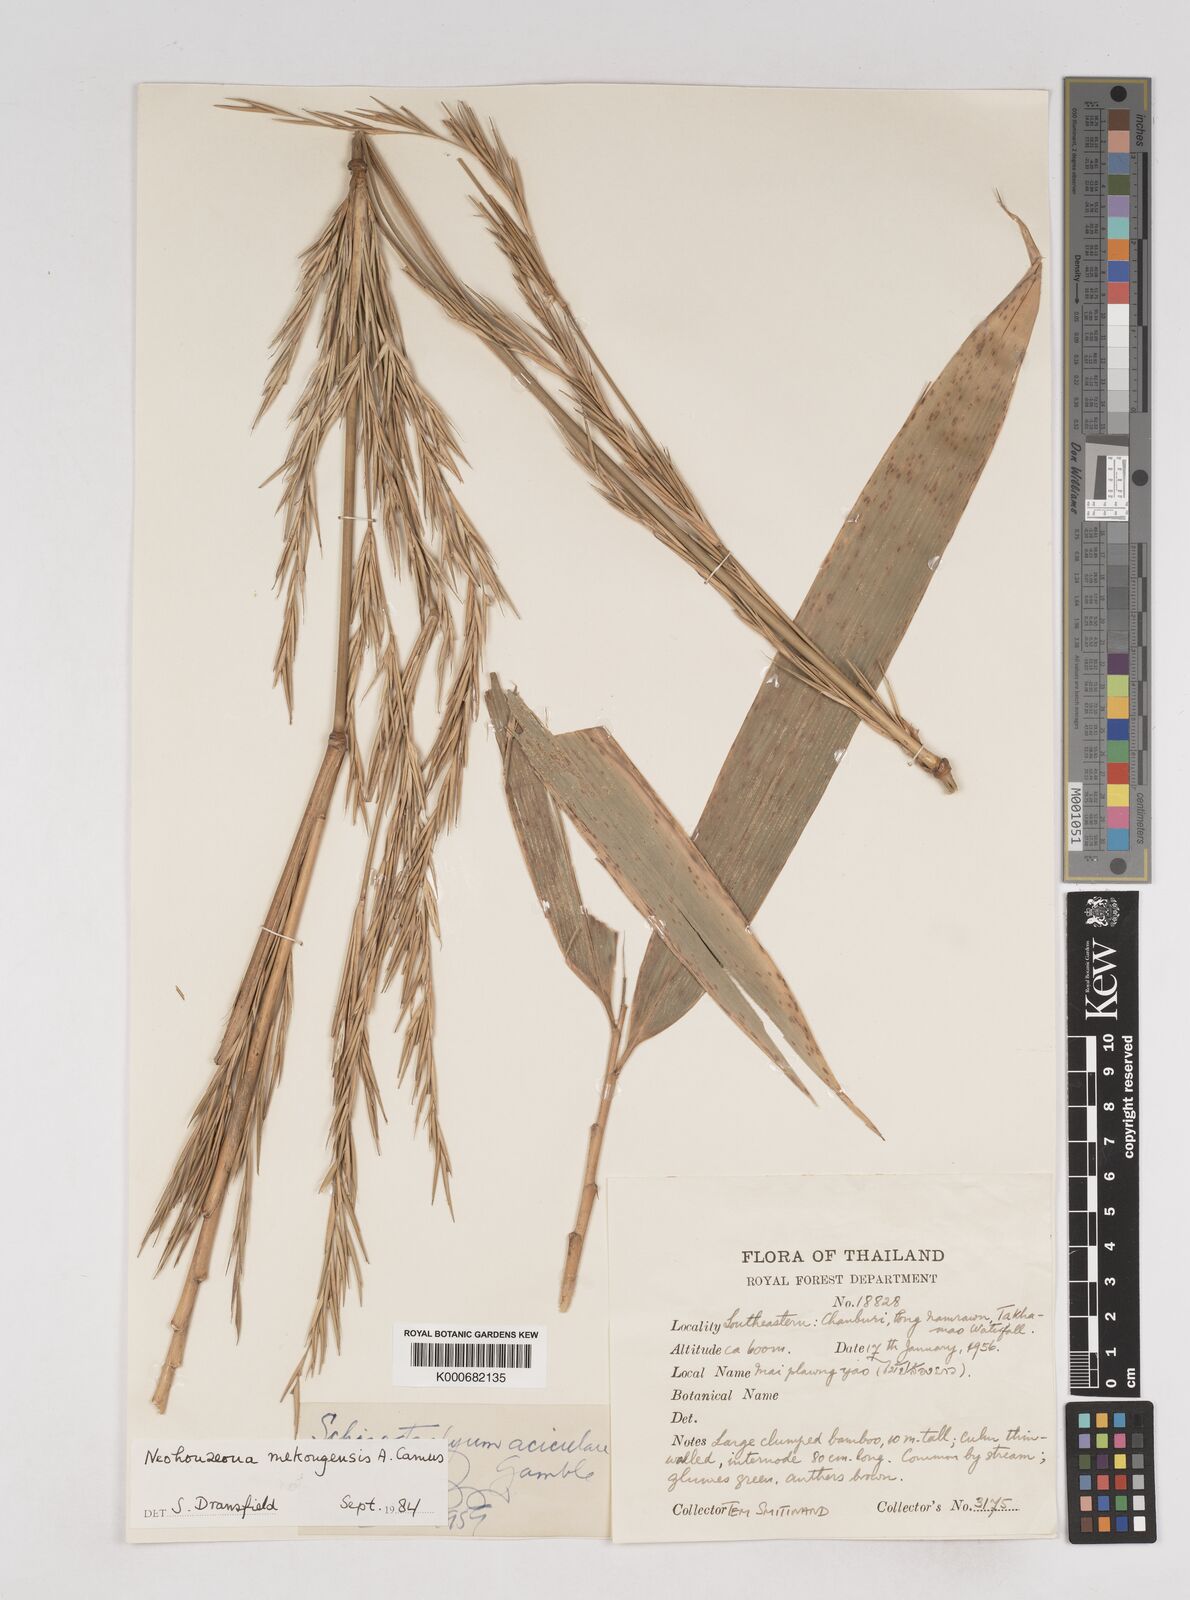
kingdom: Plantae
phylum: Tracheophyta
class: Liliopsida
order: Poales
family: Poaceae
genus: Schizostachyum
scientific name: Schizostachyum
